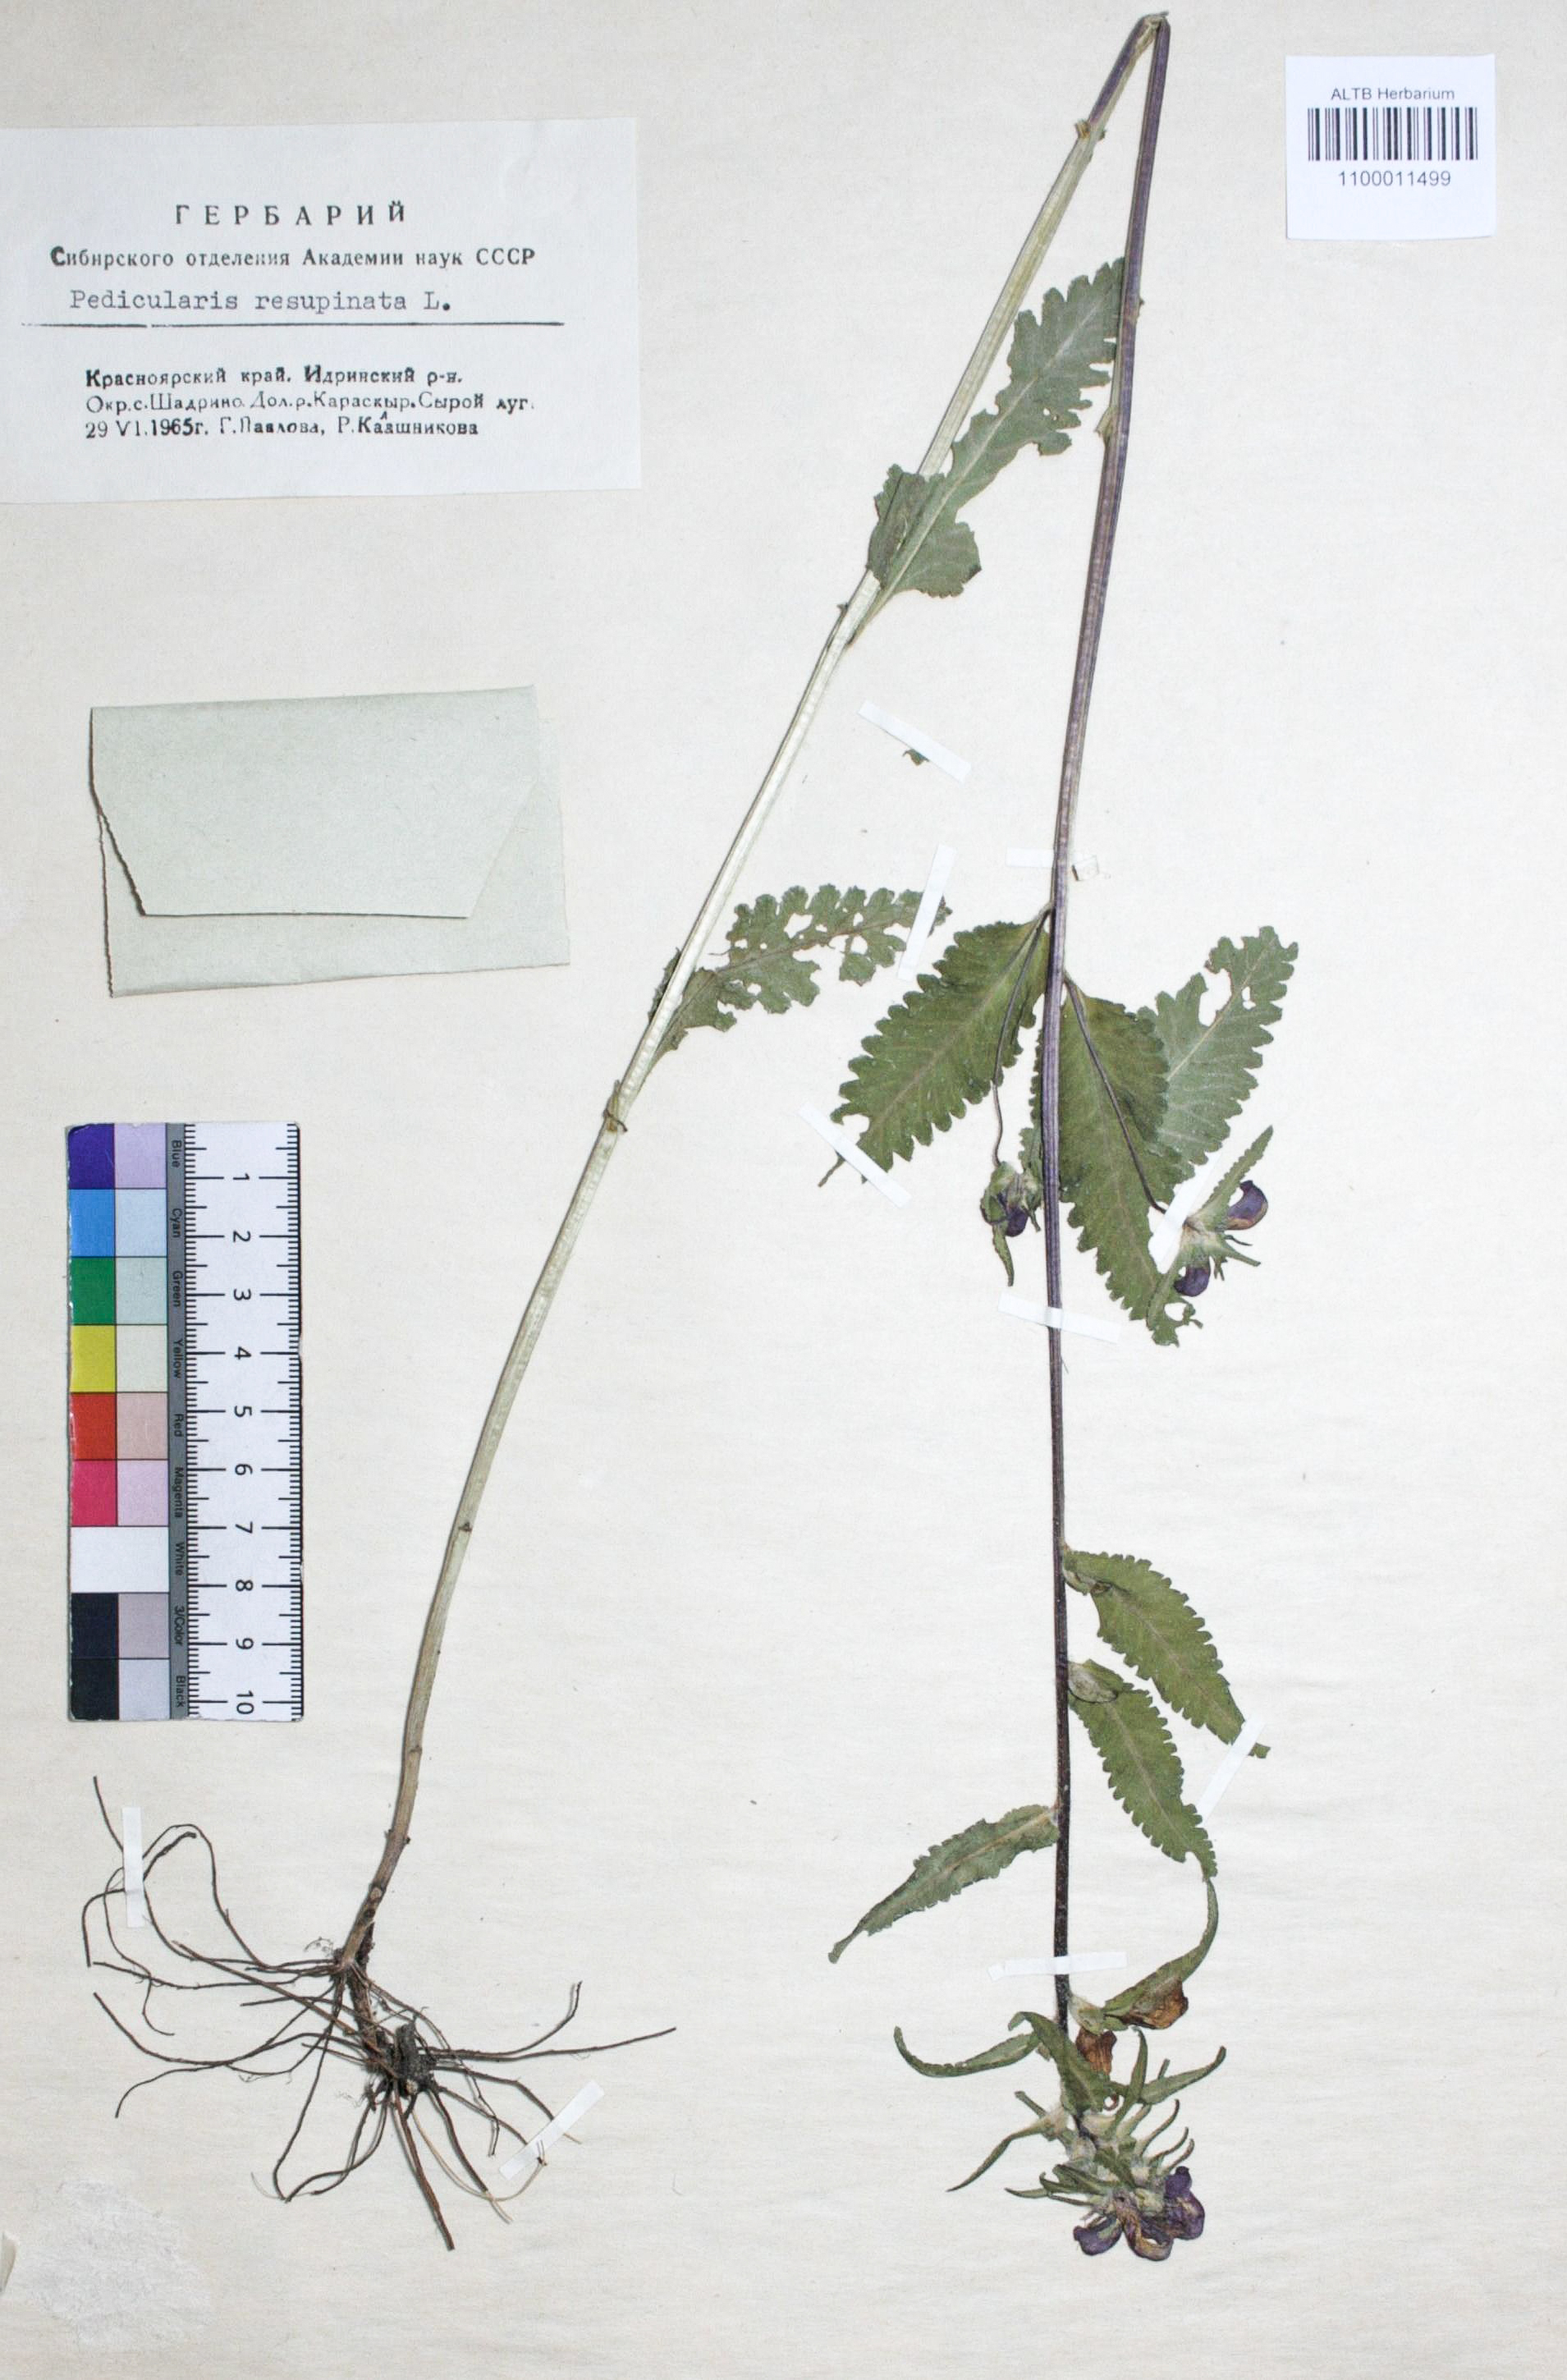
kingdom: Plantae
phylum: Tracheophyta
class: Magnoliopsida
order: Lamiales
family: Orobanchaceae
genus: Pedicularis
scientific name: Pedicularis resupinata
